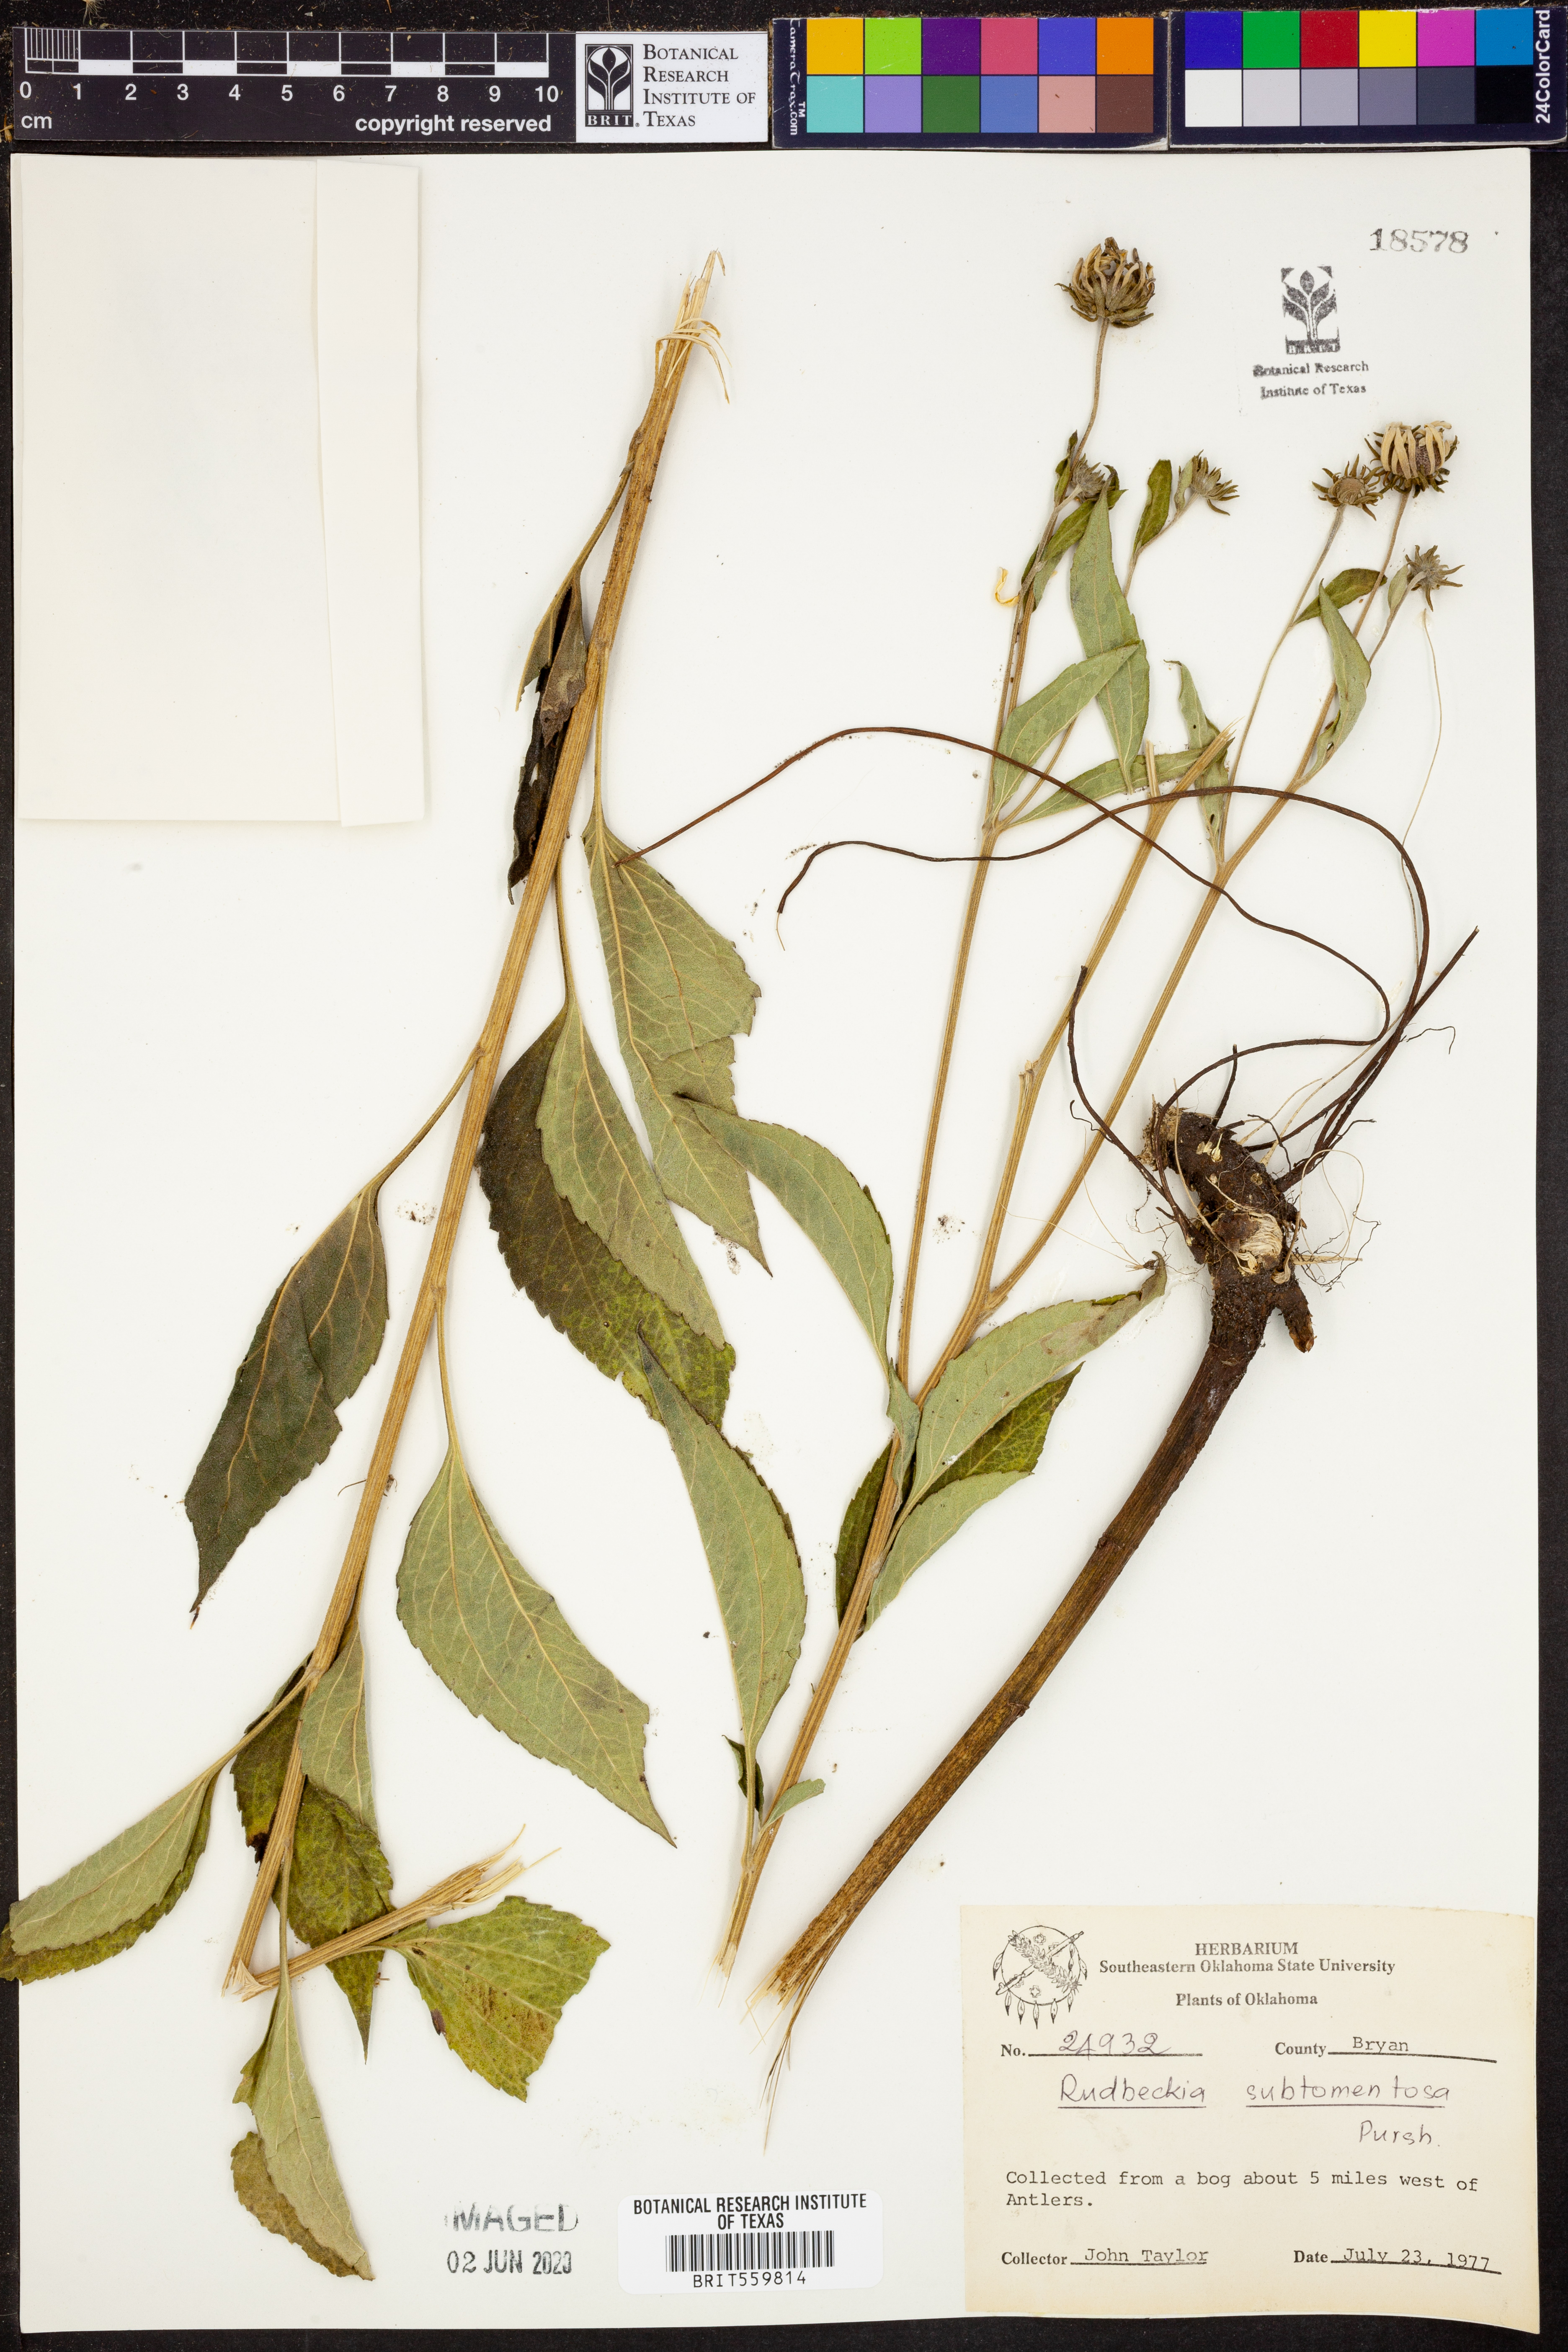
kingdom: Plantae
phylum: Tracheophyta
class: Magnoliopsida
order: Asterales
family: Asteraceae
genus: Rudbeckia
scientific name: Rudbeckia subtomentosa
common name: Sweet coneflower
